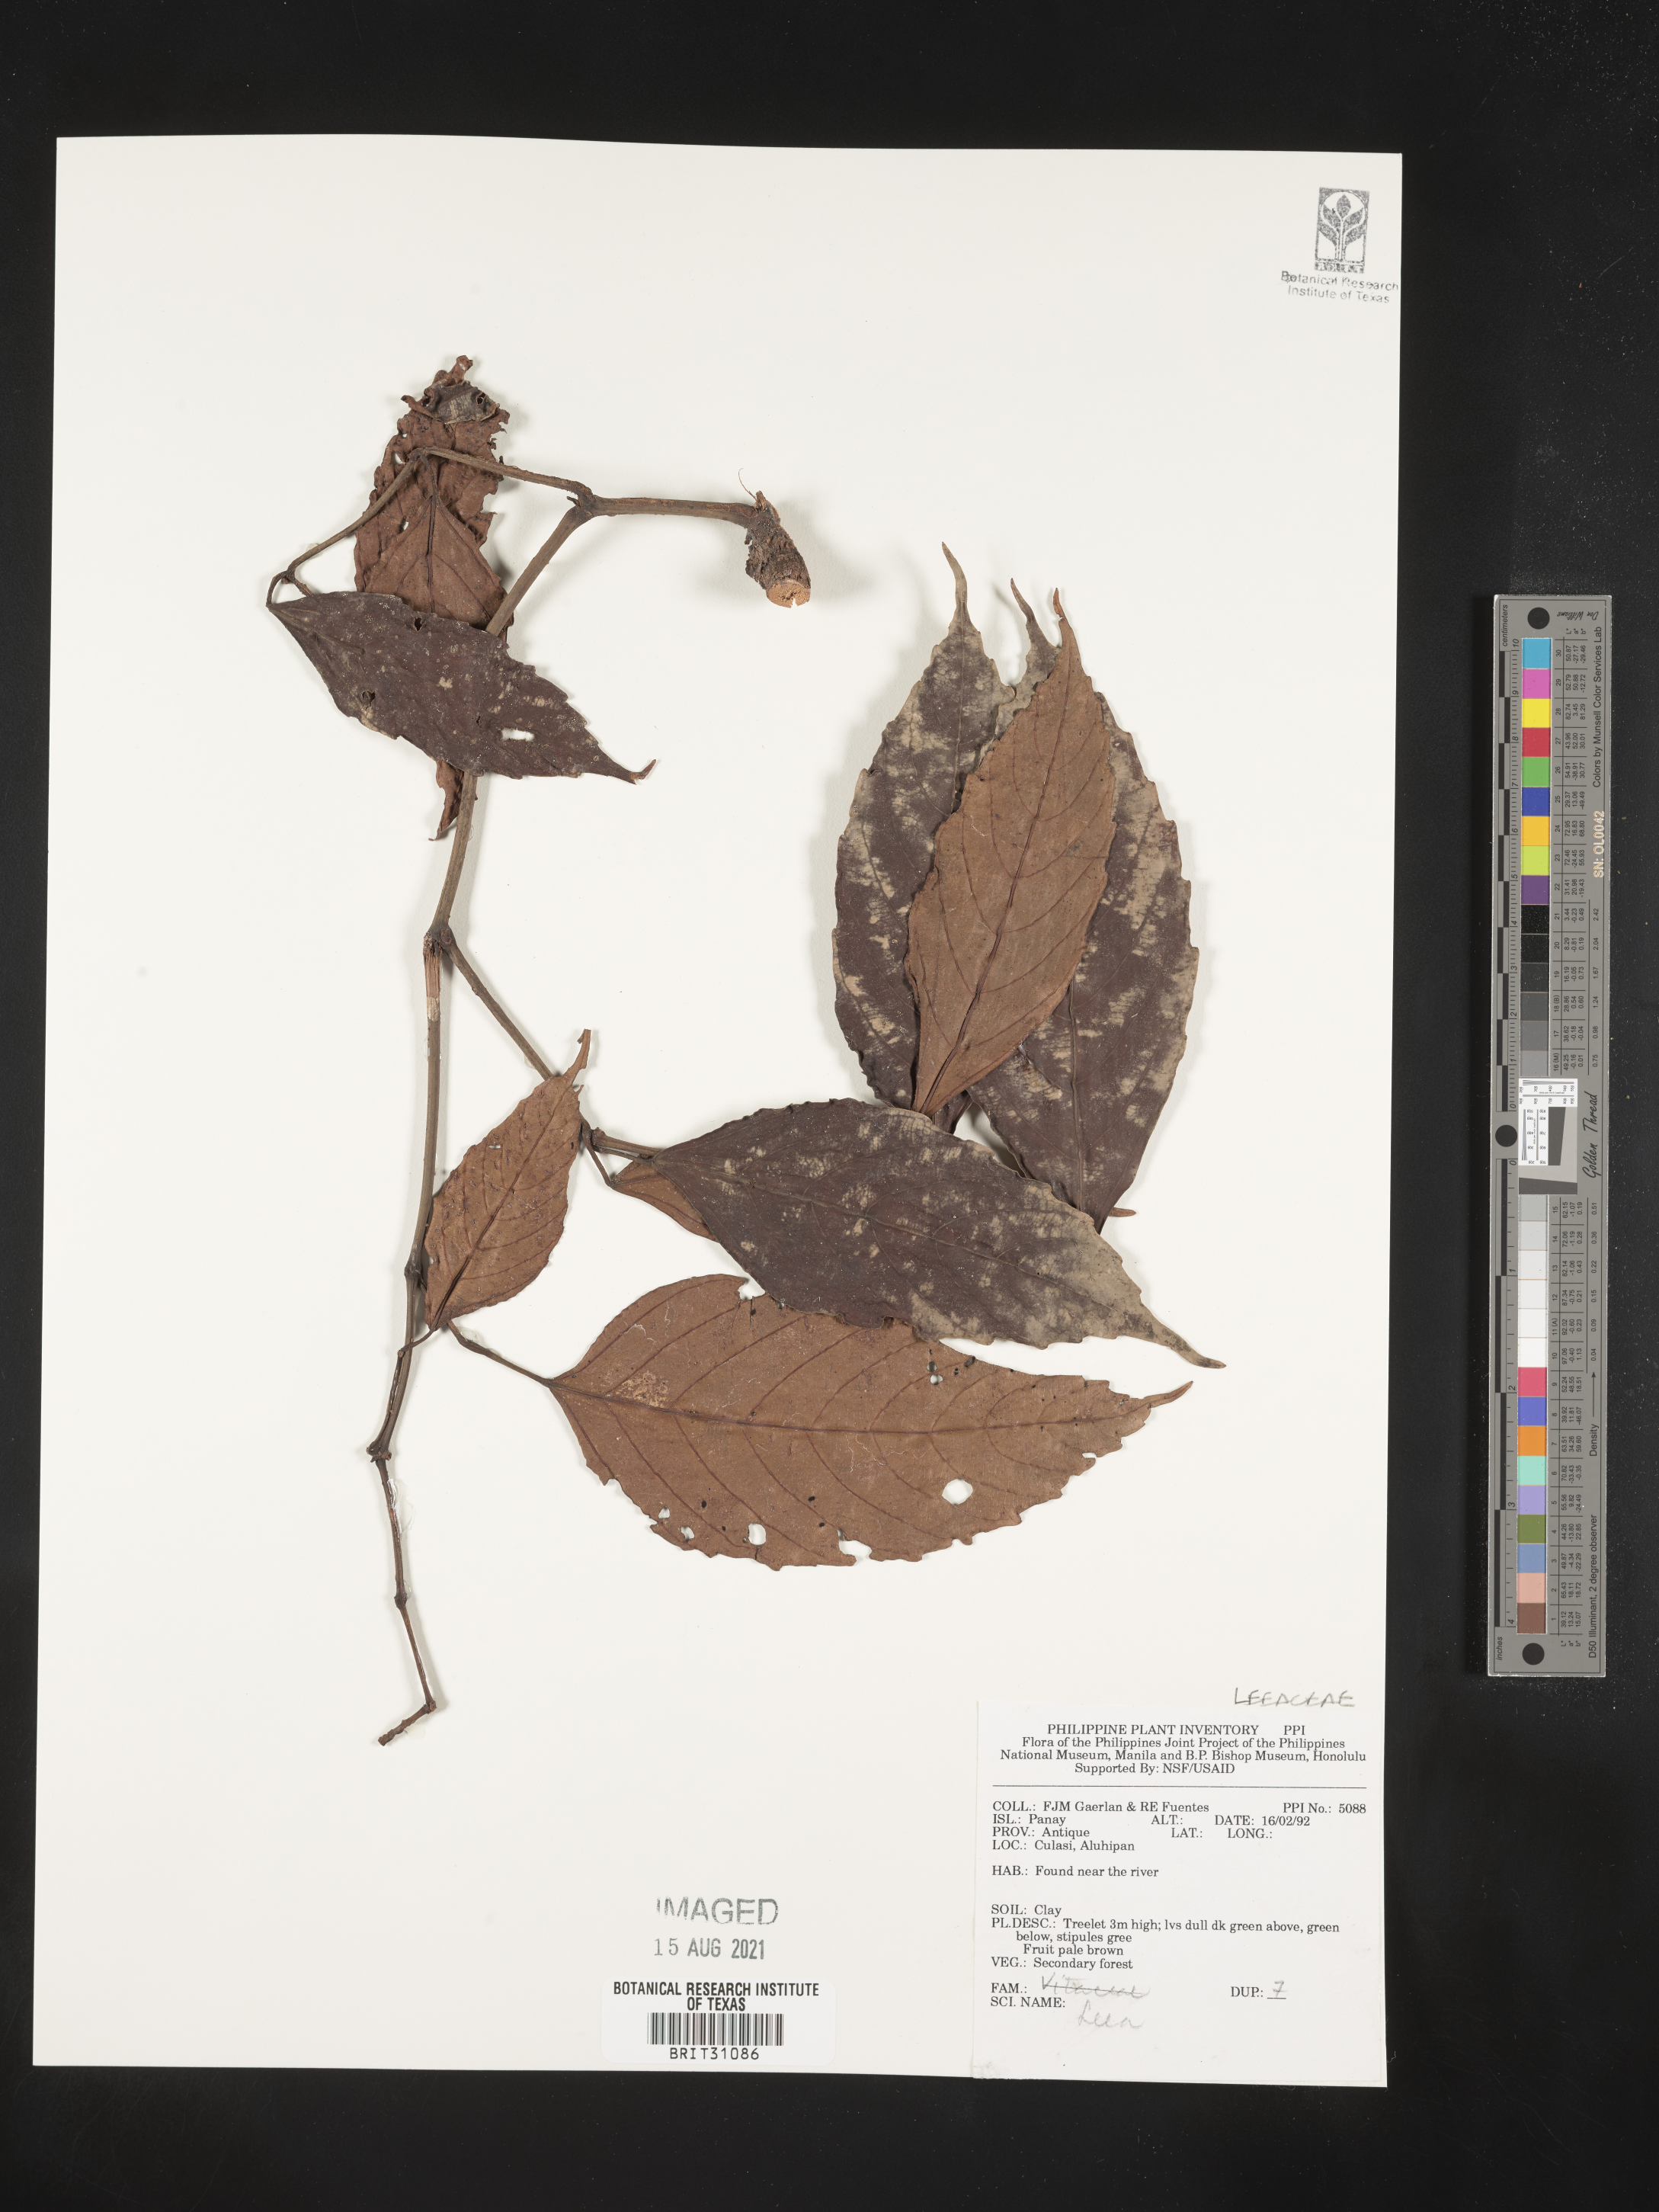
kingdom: Plantae
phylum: Tracheophyta
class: Magnoliopsida
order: Vitales
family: Vitaceae
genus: Leea
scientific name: Leea
